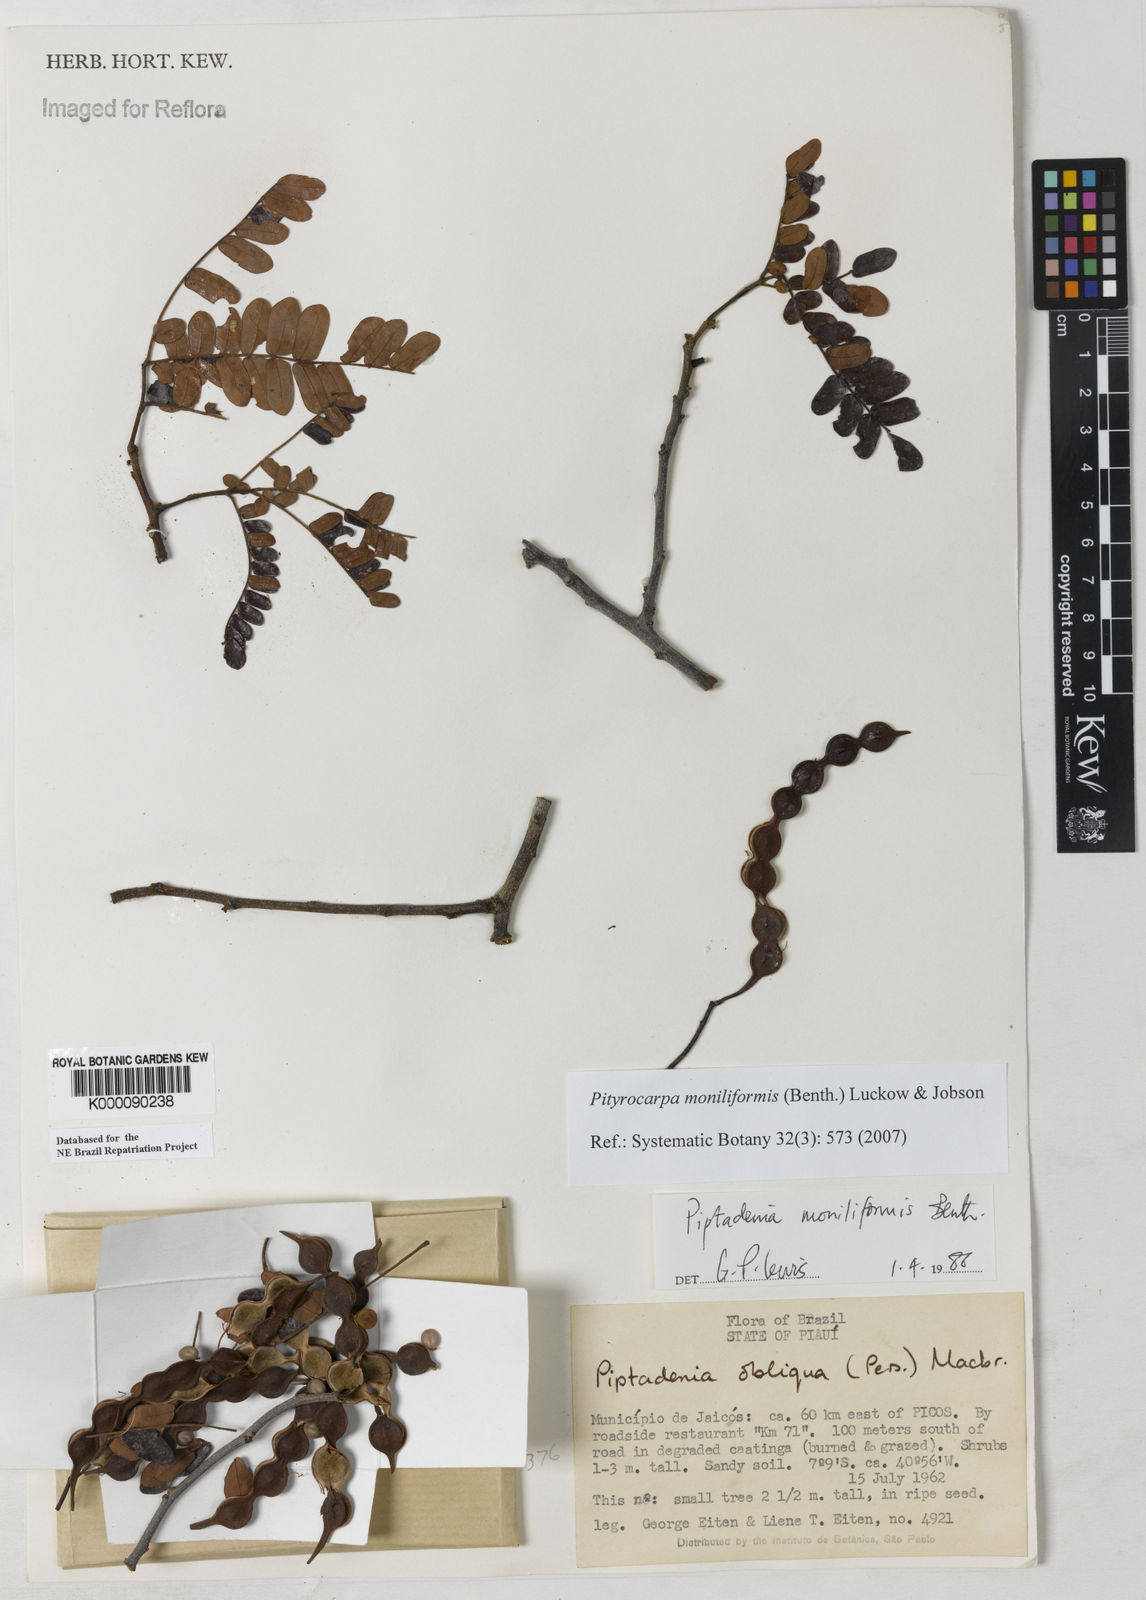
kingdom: Plantae
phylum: Tracheophyta
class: Magnoliopsida
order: Fabales
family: Fabaceae
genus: Pityrocarpa
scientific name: Pityrocarpa moniliformis
